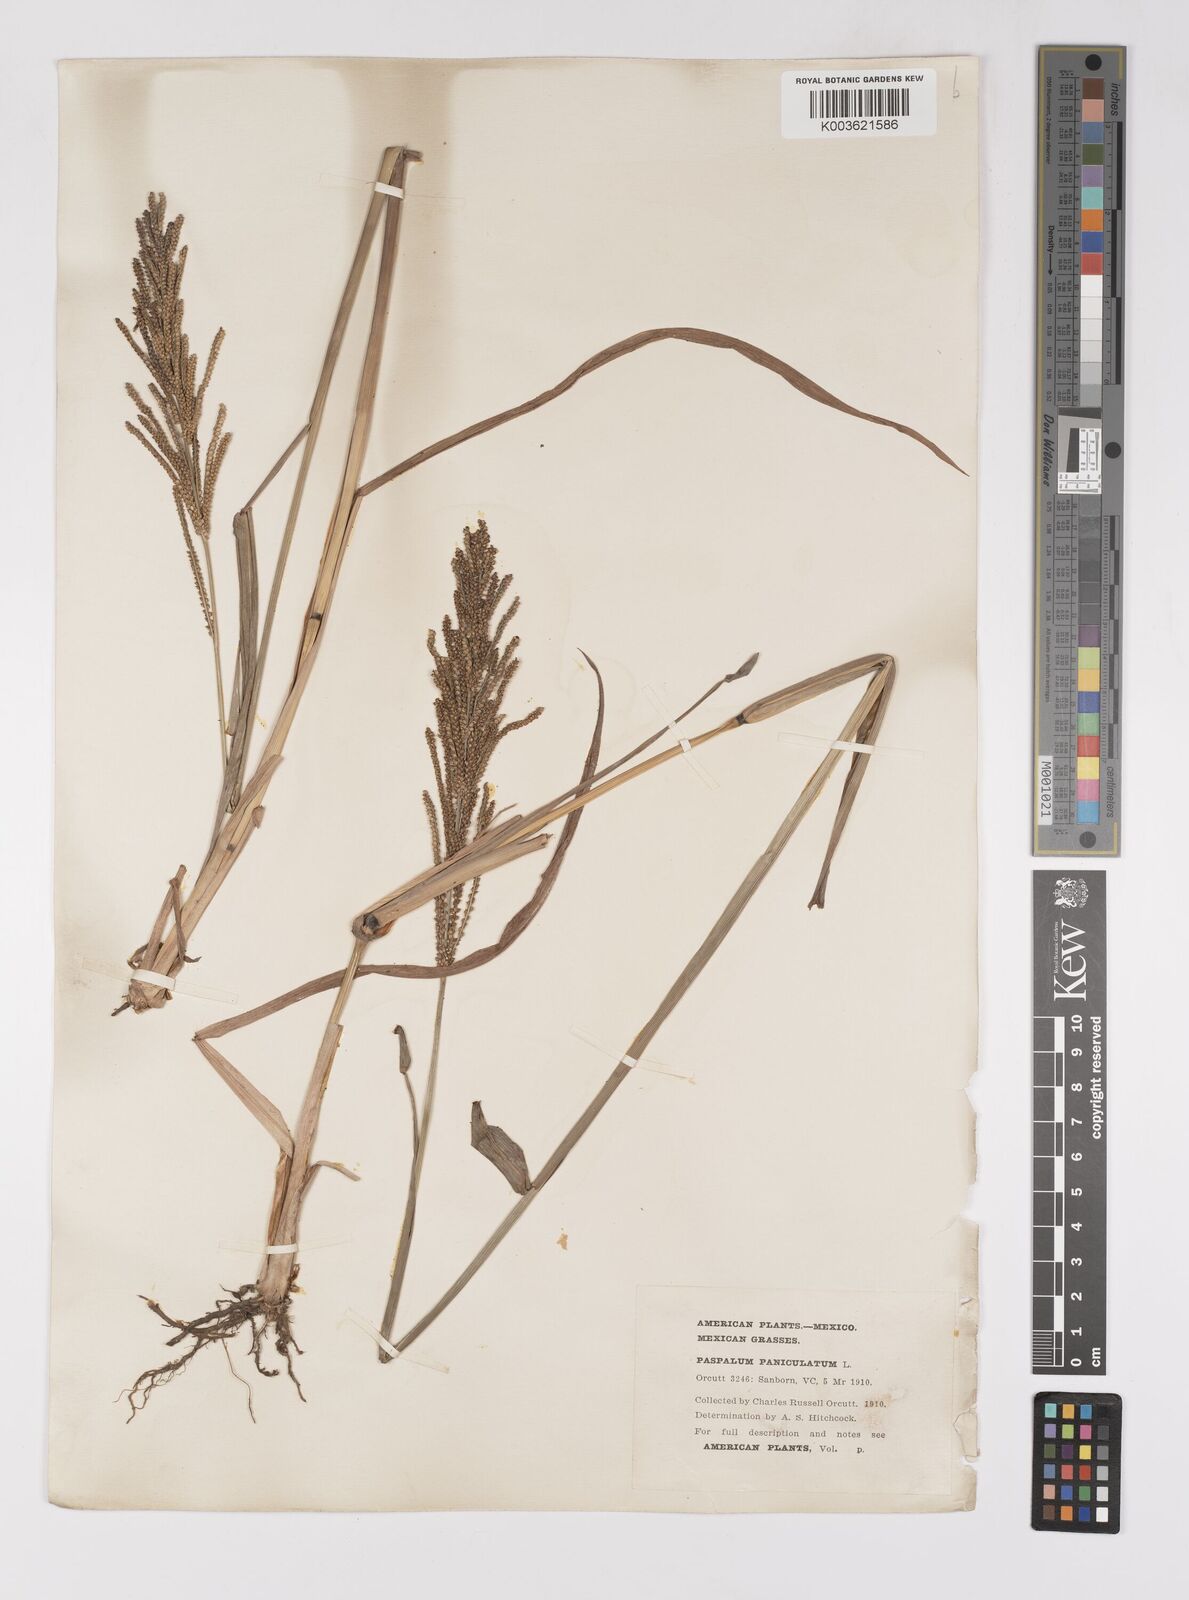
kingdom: Plantae
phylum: Tracheophyta
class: Liliopsida
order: Poales
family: Poaceae
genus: Paspalum
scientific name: Paspalum paniculatum
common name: Arrocillo
